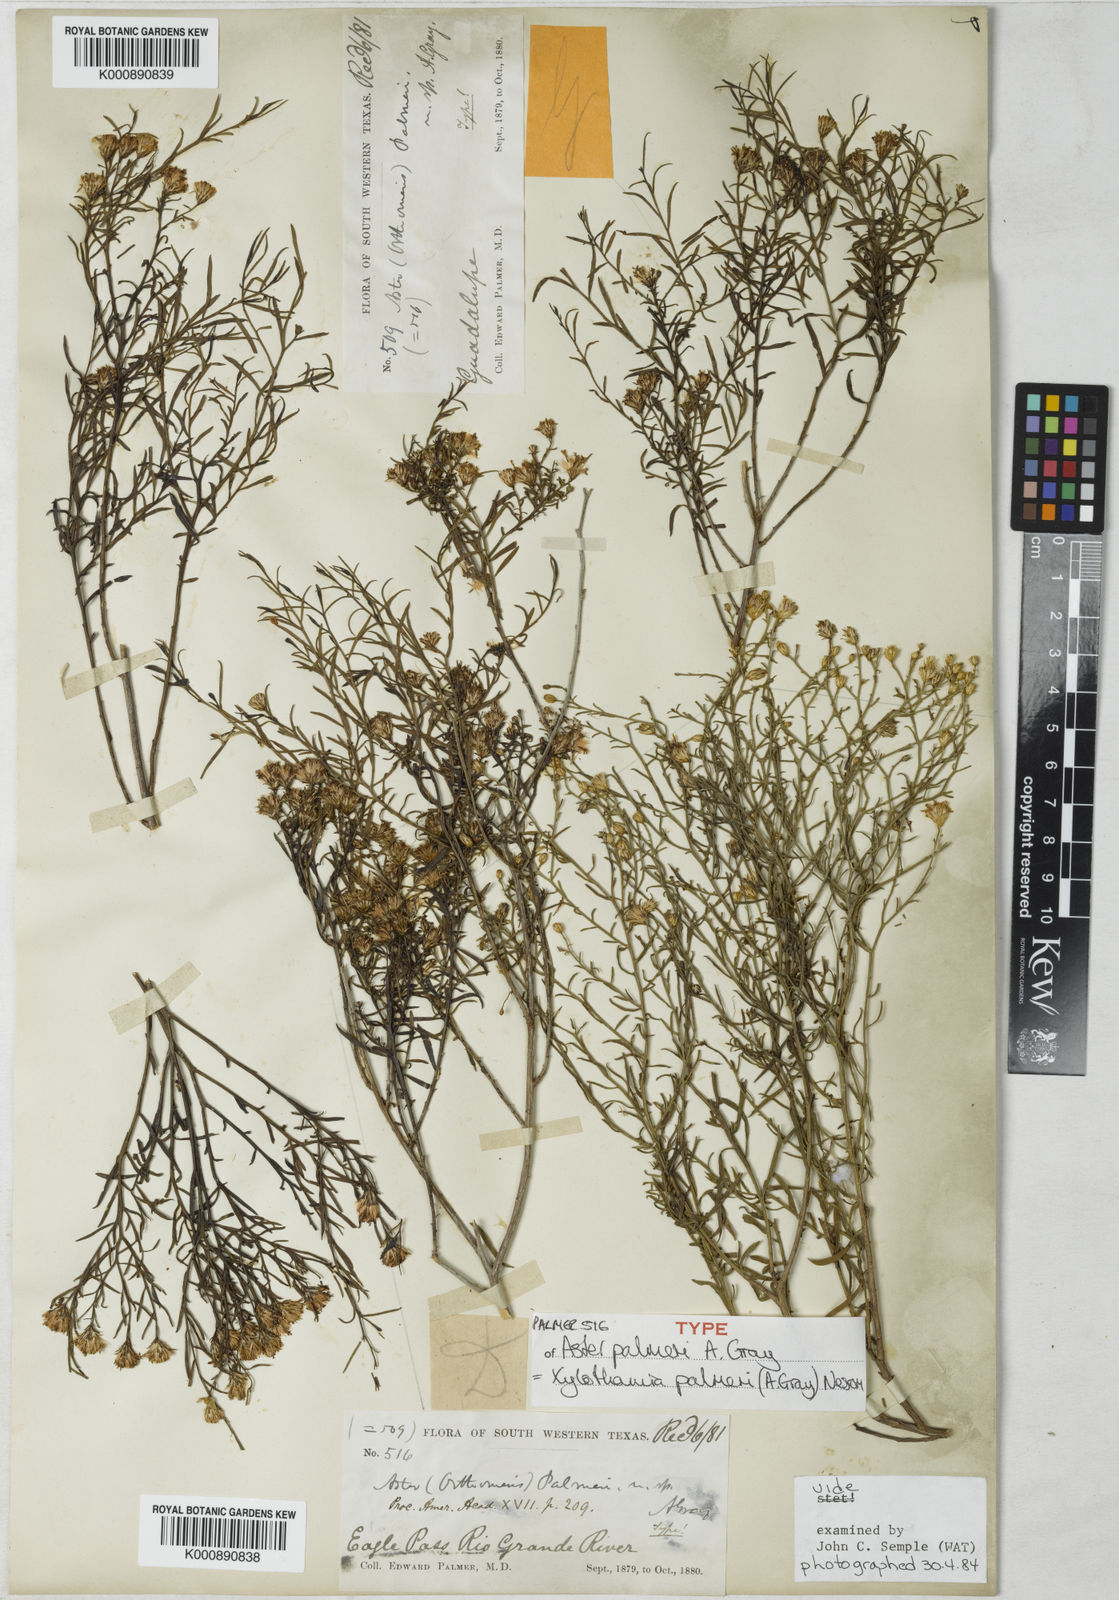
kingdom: Plantae
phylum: Tracheophyta
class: Magnoliopsida
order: Asterales
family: Asteraceae
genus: Gundlachia
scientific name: Gundlachia
